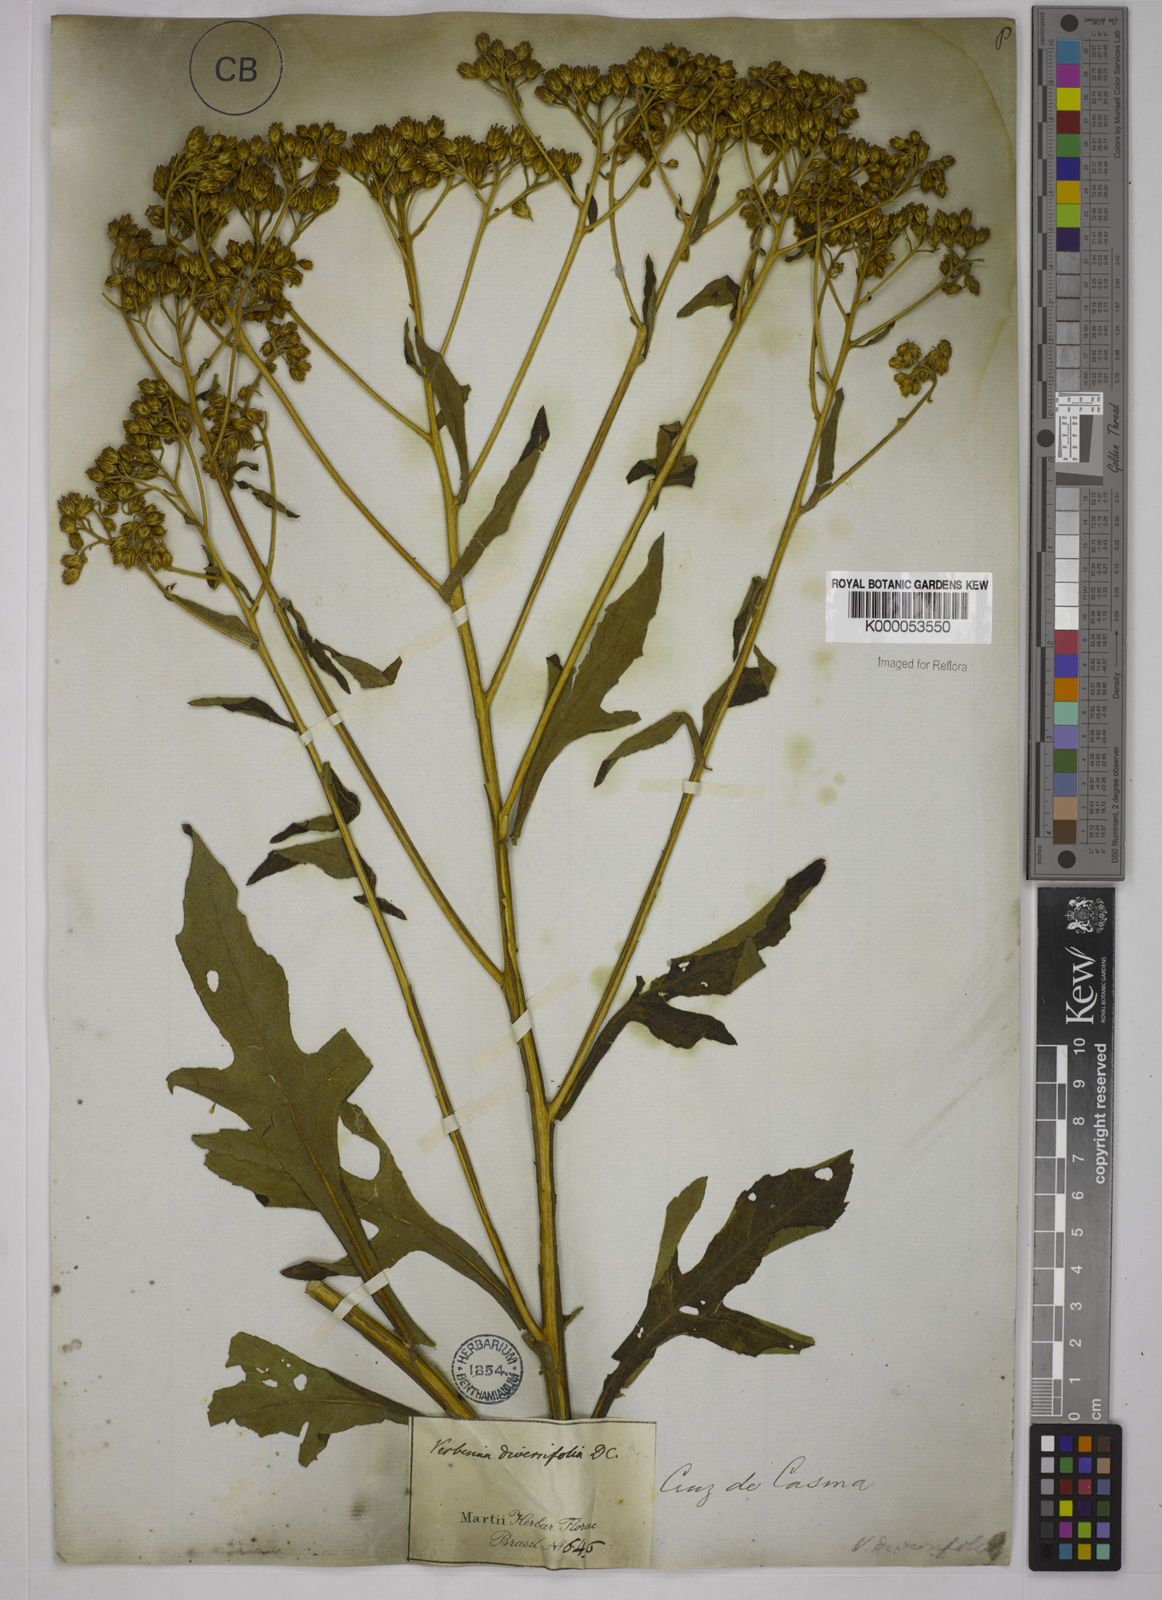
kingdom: Plantae
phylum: Tracheophyta
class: Magnoliopsida
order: Asterales
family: Asteraceae
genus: Verbesina
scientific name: Verbesina macrophylla
